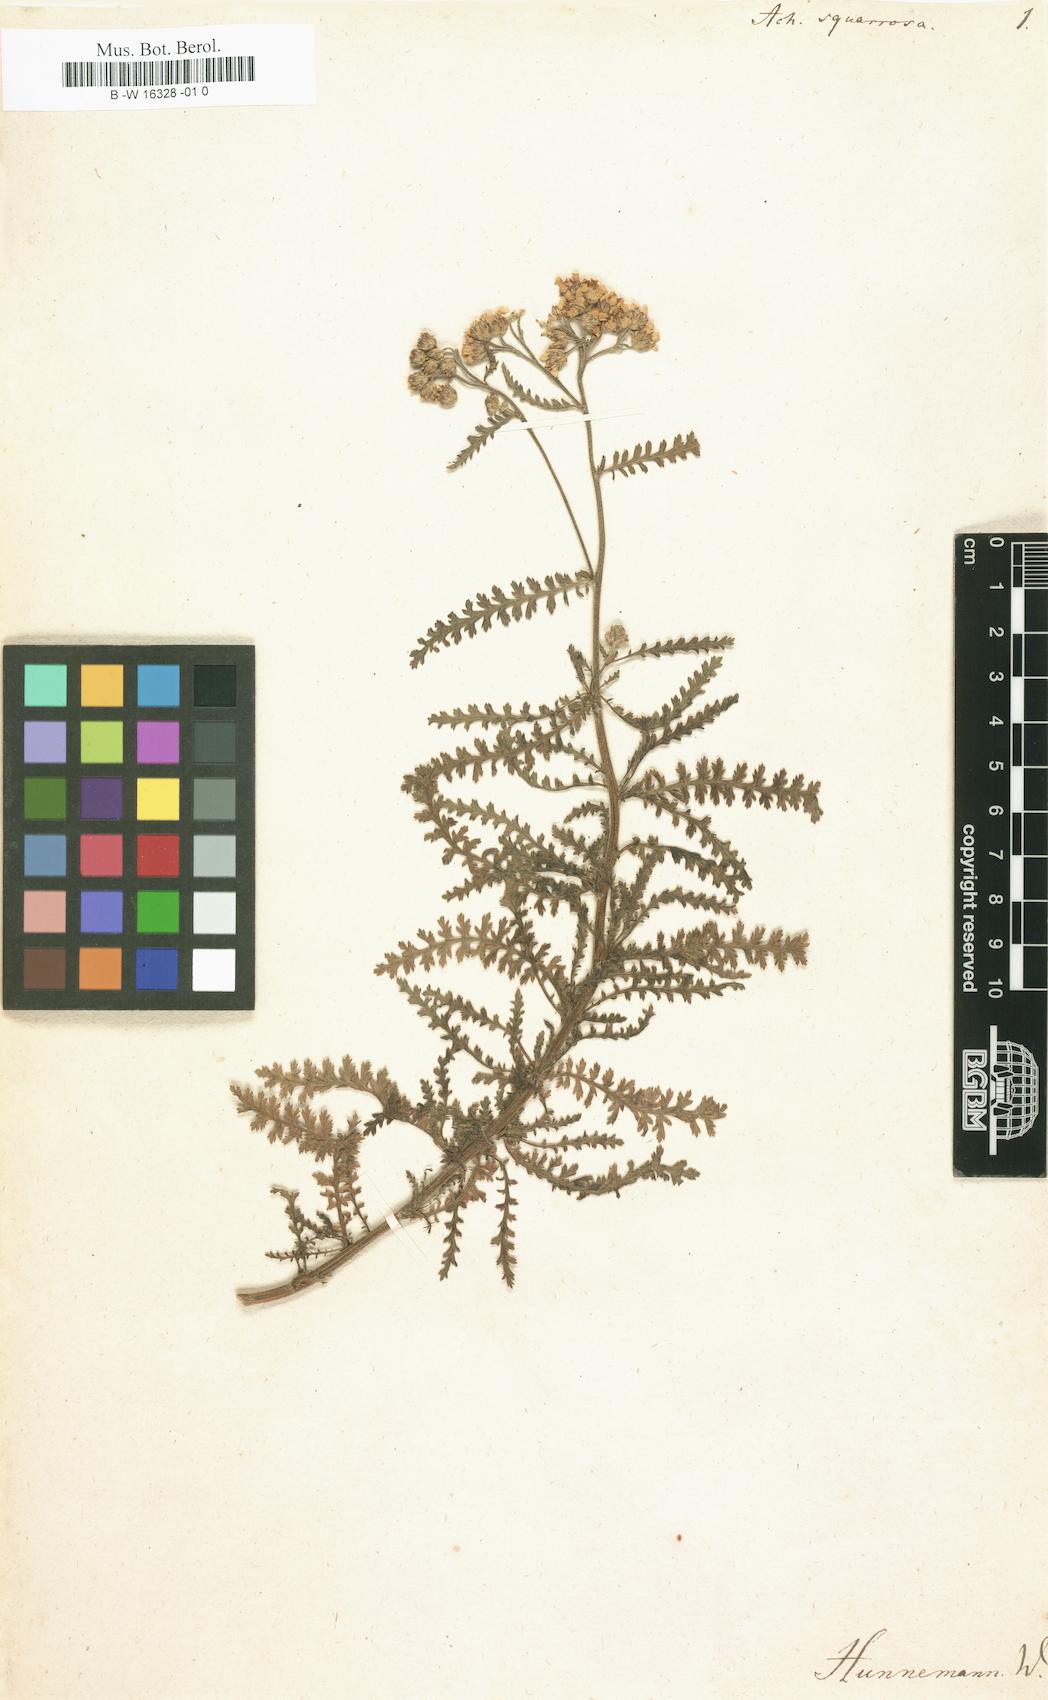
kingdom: Plantae
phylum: Tracheophyta
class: Magnoliopsida
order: Asterales
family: Asteraceae
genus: Achillea
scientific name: Achillea squarrosa
